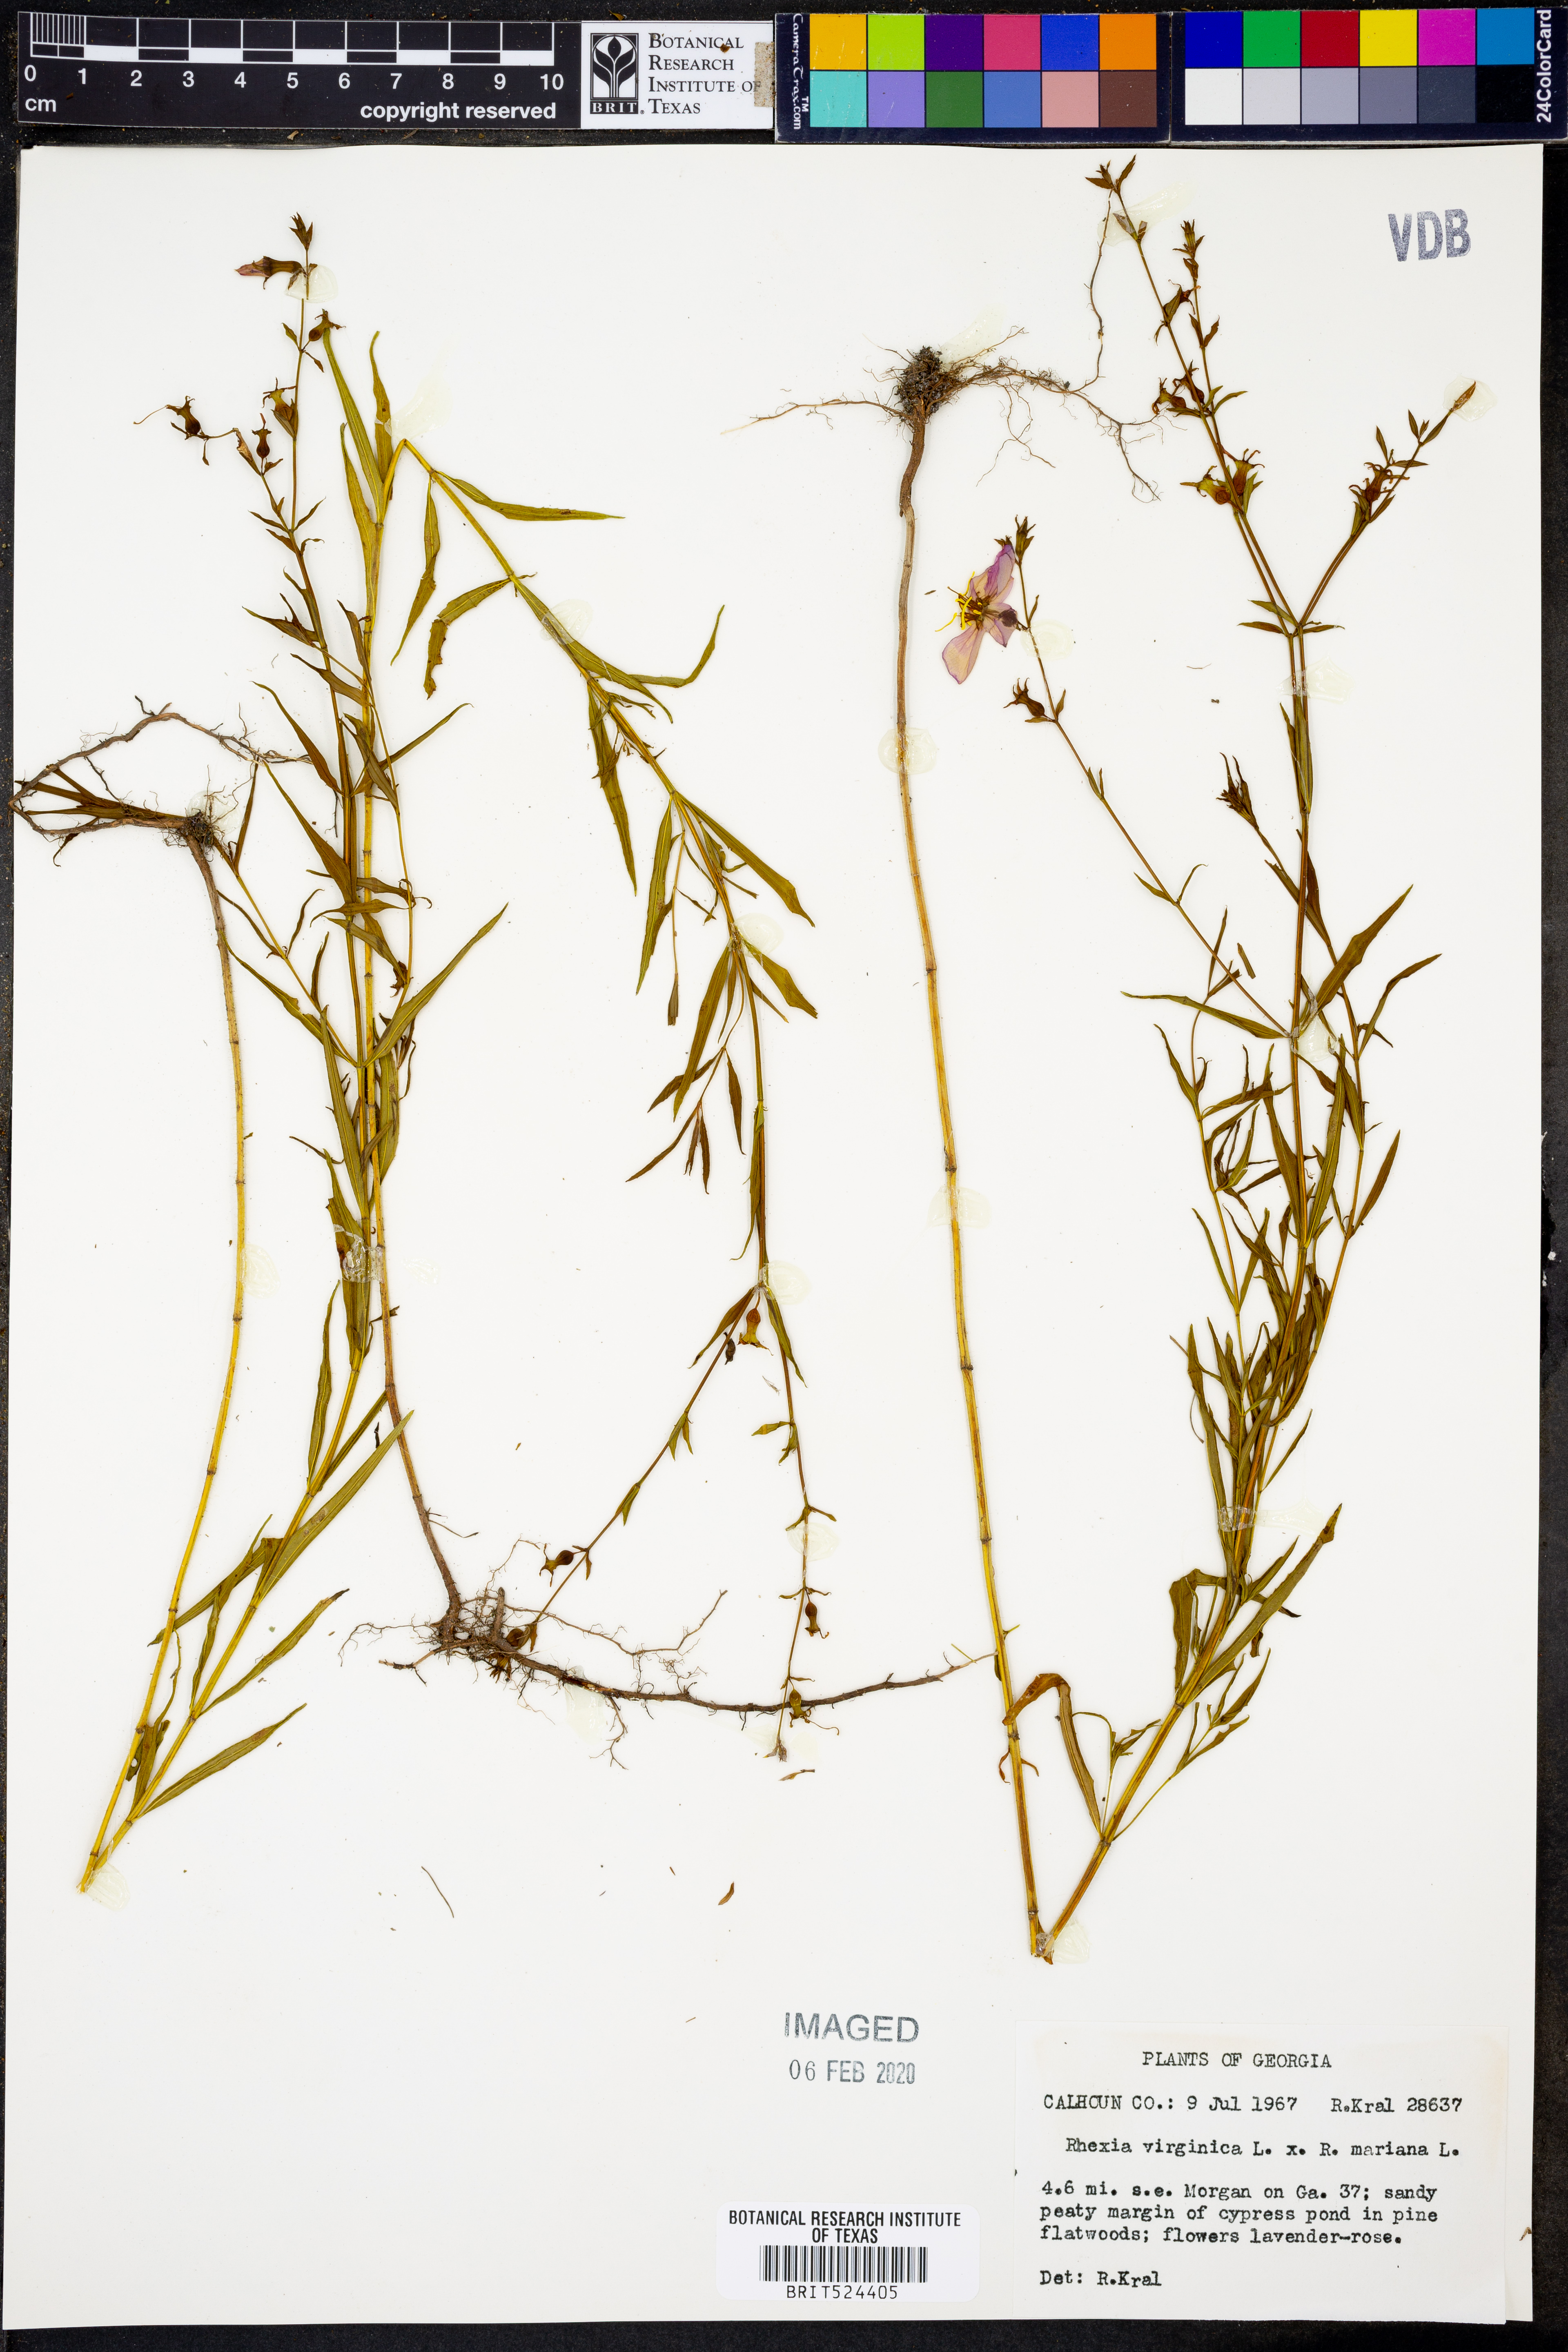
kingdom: Plantae
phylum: Tracheophyta
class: Magnoliopsida
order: Myrtales
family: Melastomataceae
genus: Rhexia
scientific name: Rhexia virginica
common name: Common meadow beauty
